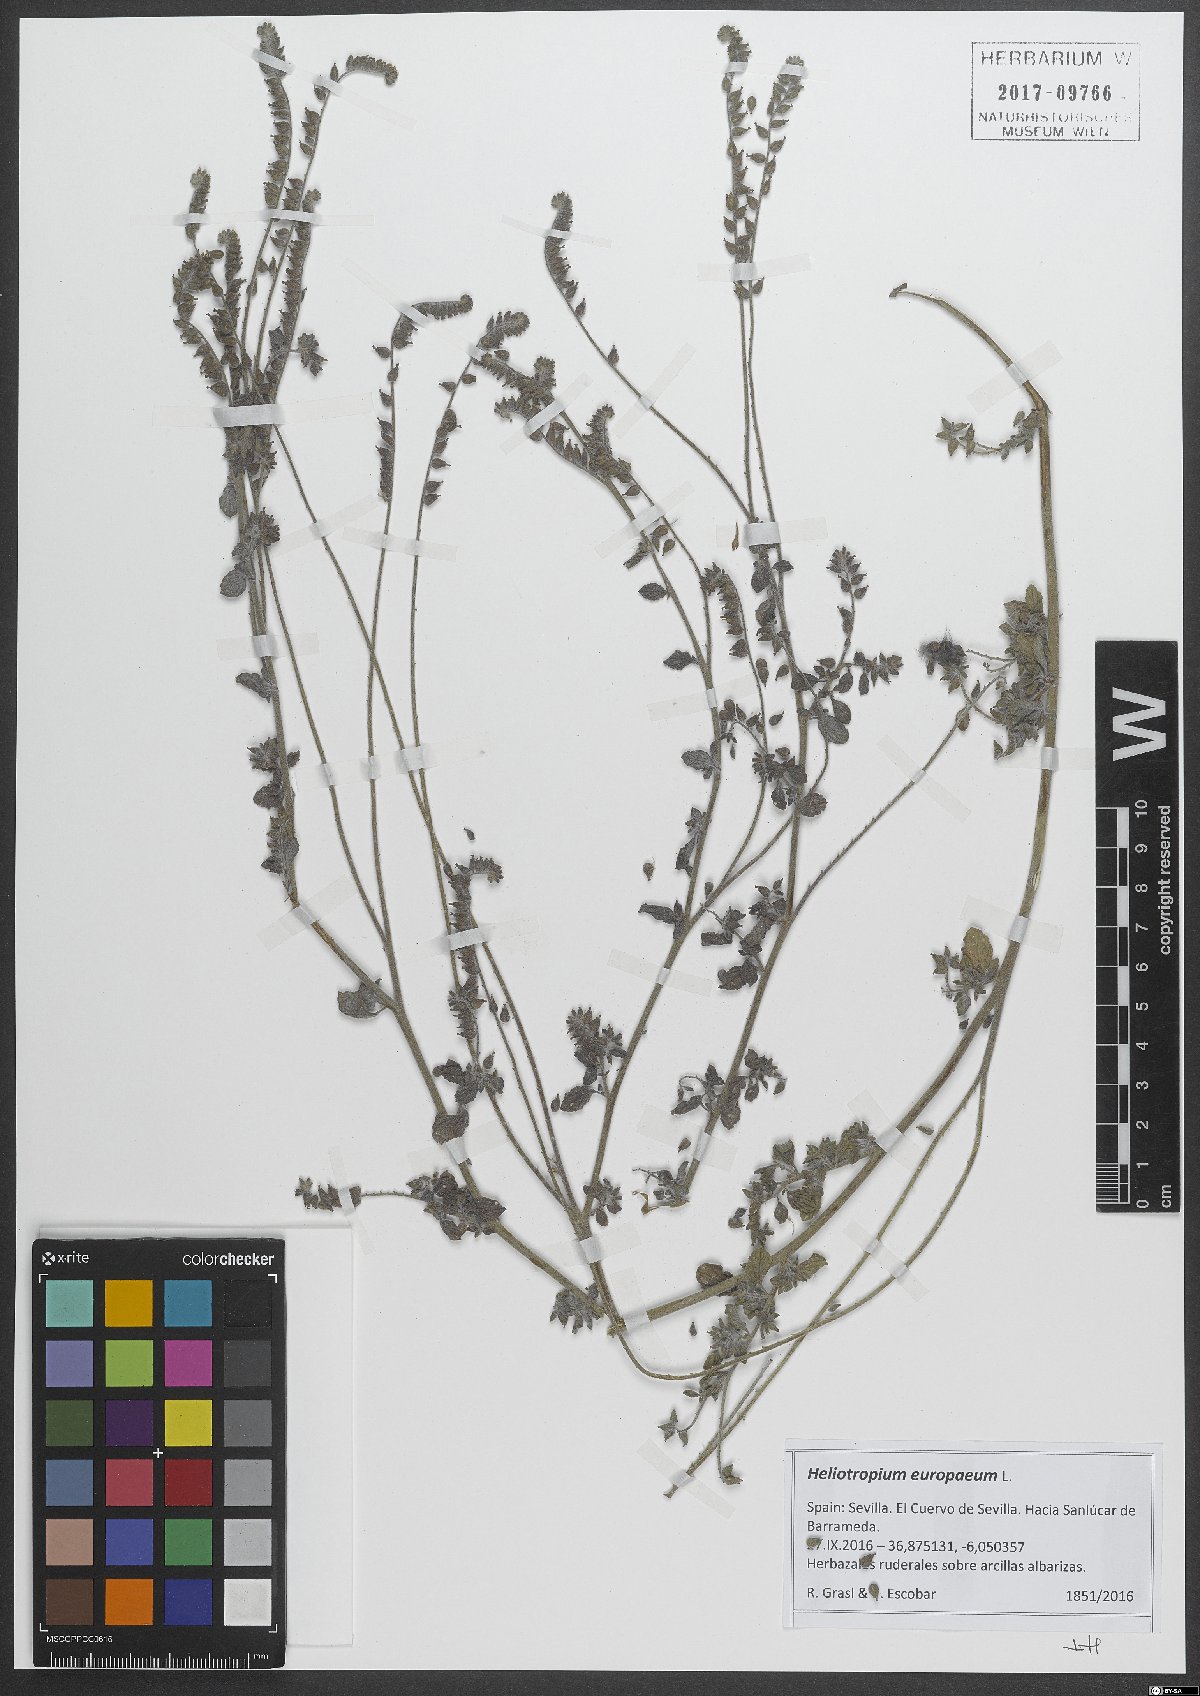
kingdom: Plantae
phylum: Tracheophyta
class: Magnoliopsida
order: Boraginales
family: Heliotropiaceae
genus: Heliotropium
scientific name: Heliotropium europaeum
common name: European heliotrope
